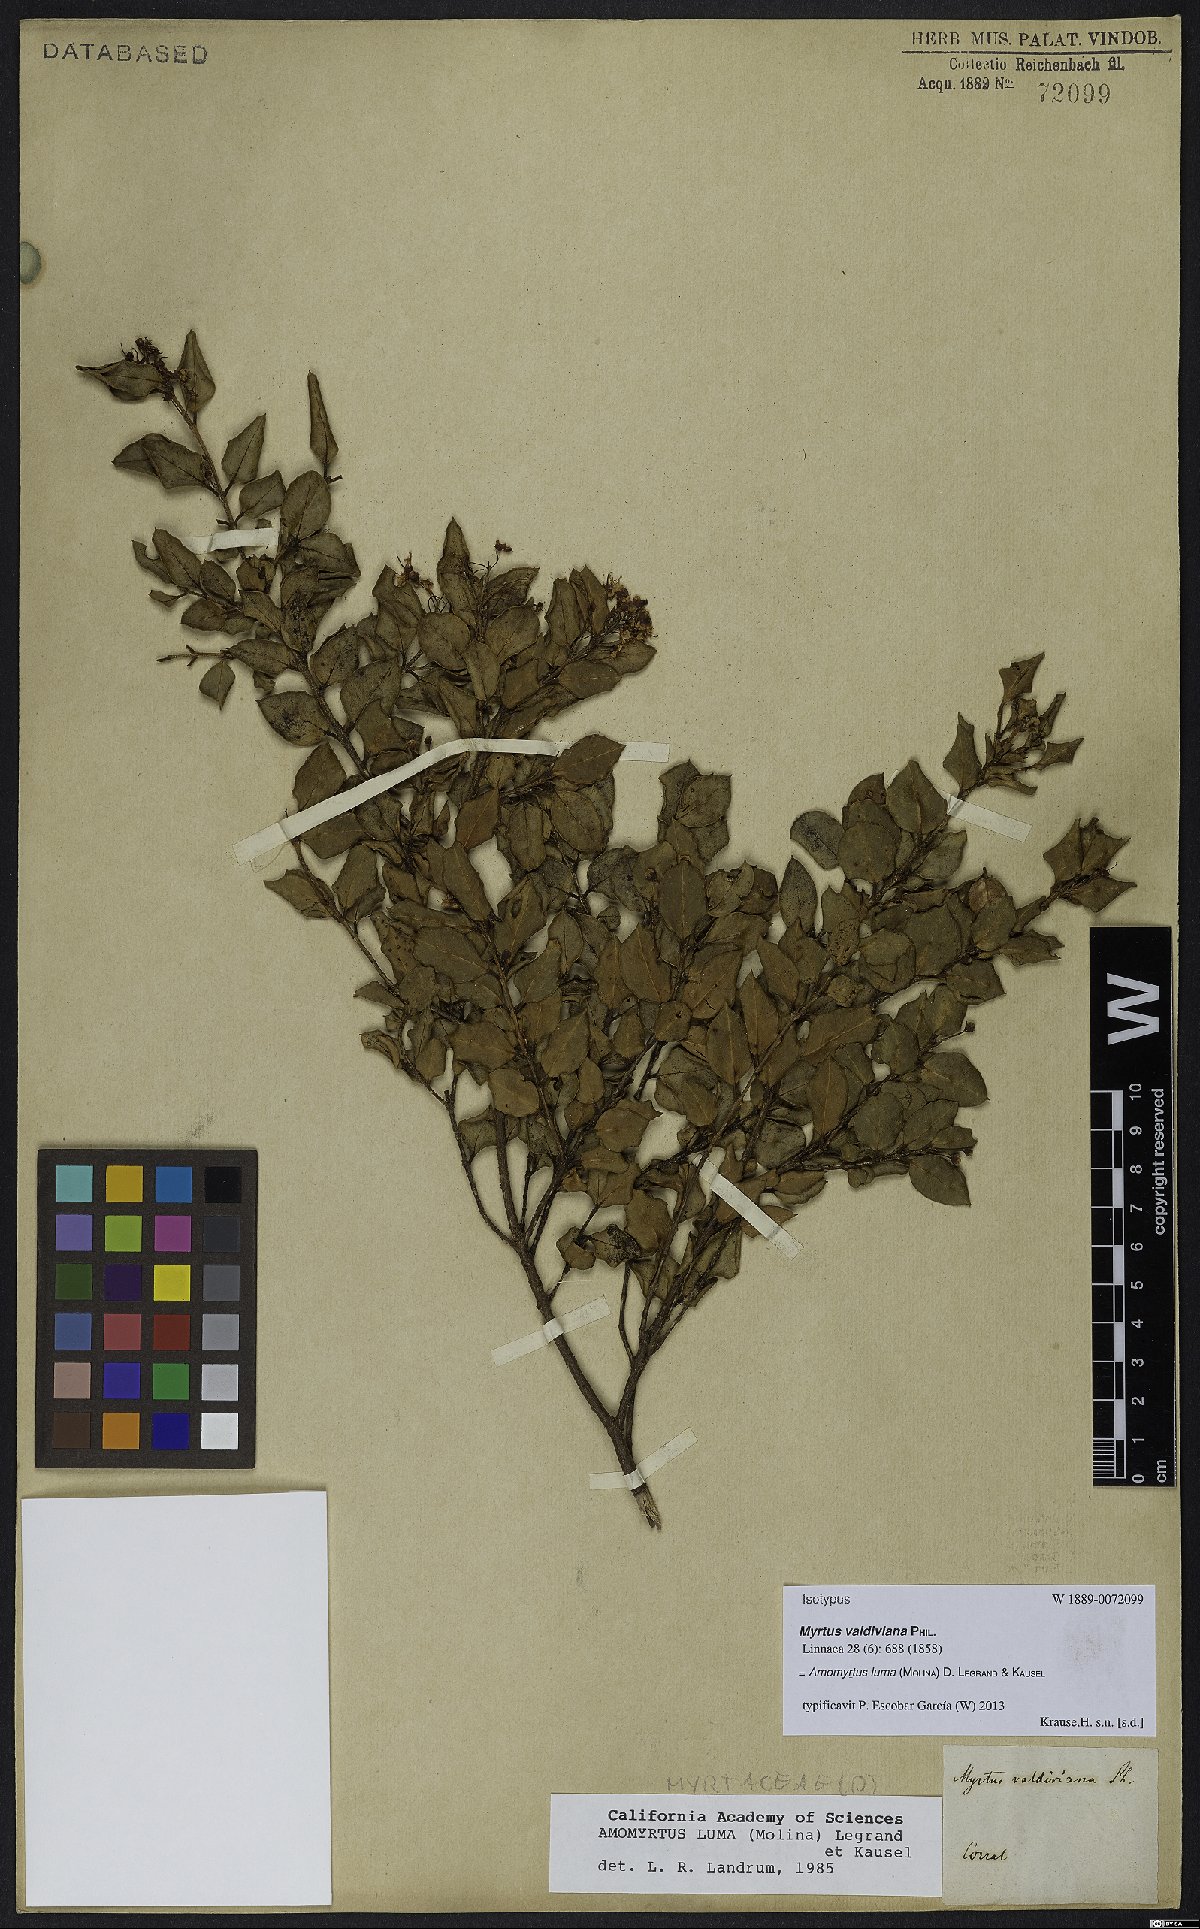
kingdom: Plantae
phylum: Tracheophyta
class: Magnoliopsida
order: Myrtales
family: Myrtaceae
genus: Amomyrtus
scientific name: Amomyrtus luma
